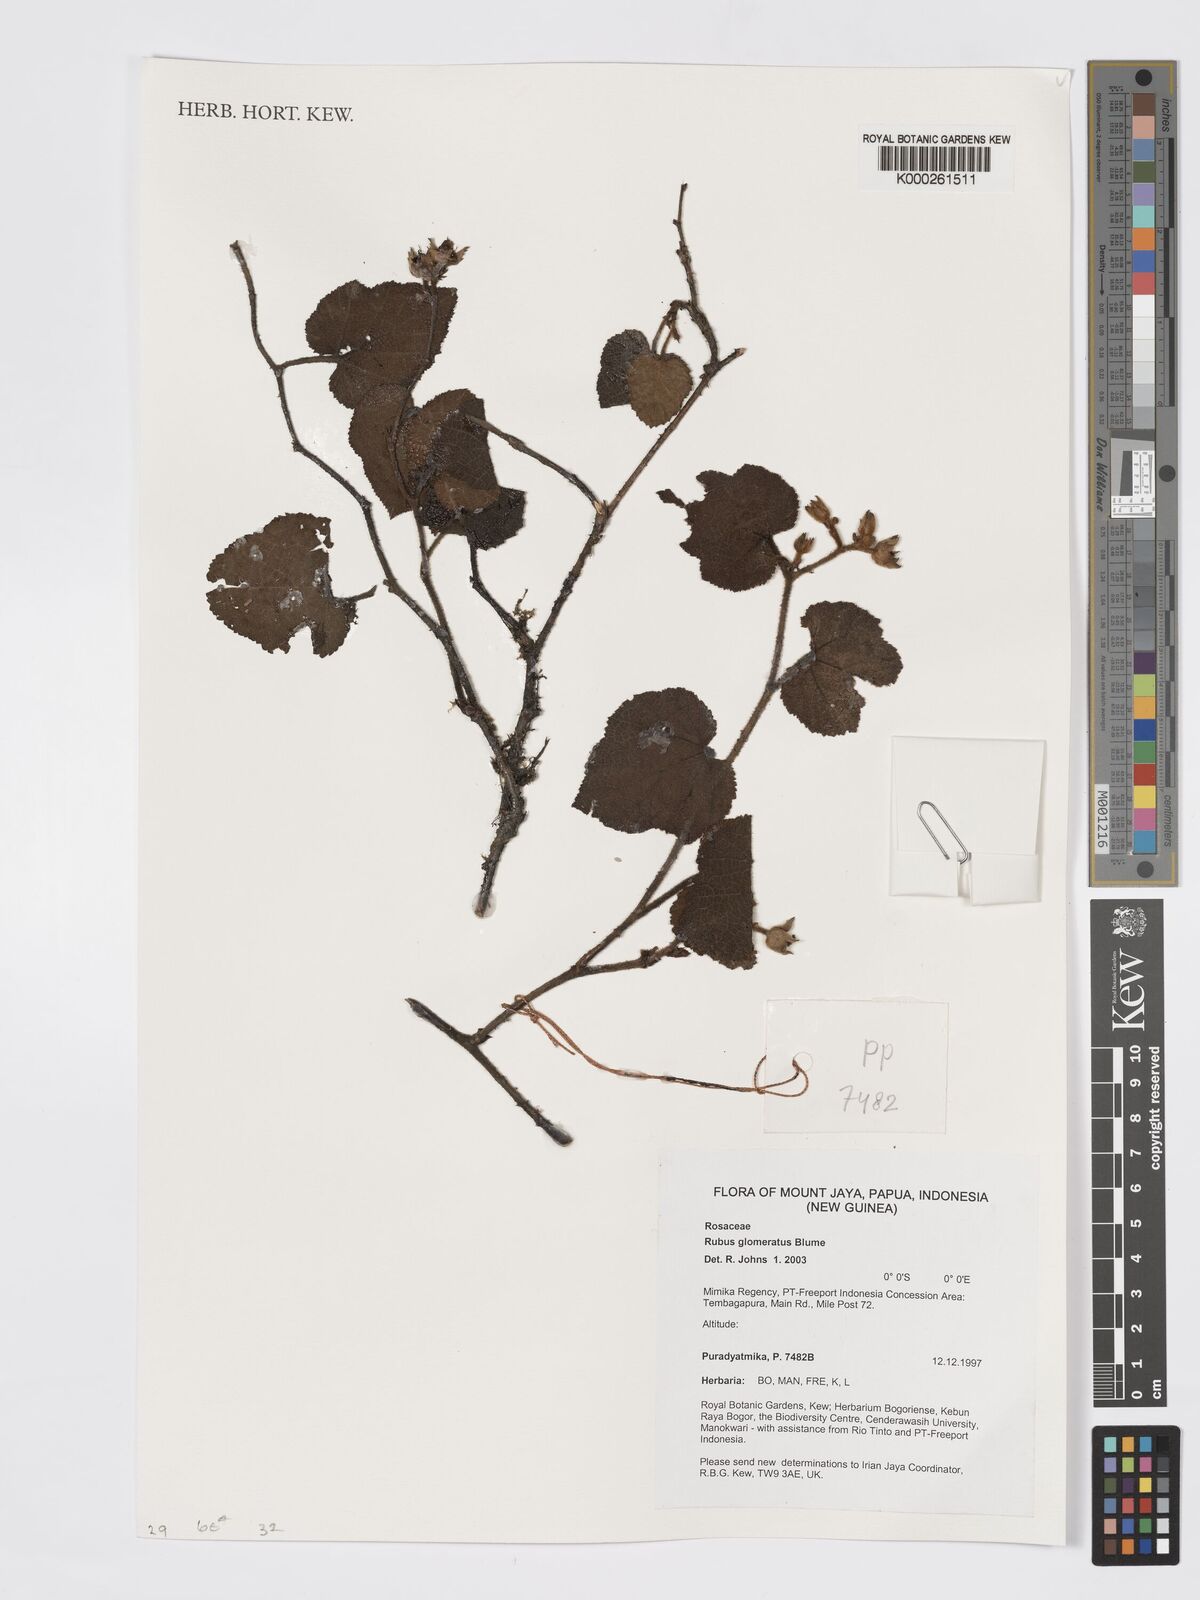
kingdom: Plantae
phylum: Tracheophyta
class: Magnoliopsida
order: Rosales
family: Rosaceae
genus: Rubus
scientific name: Rubus
